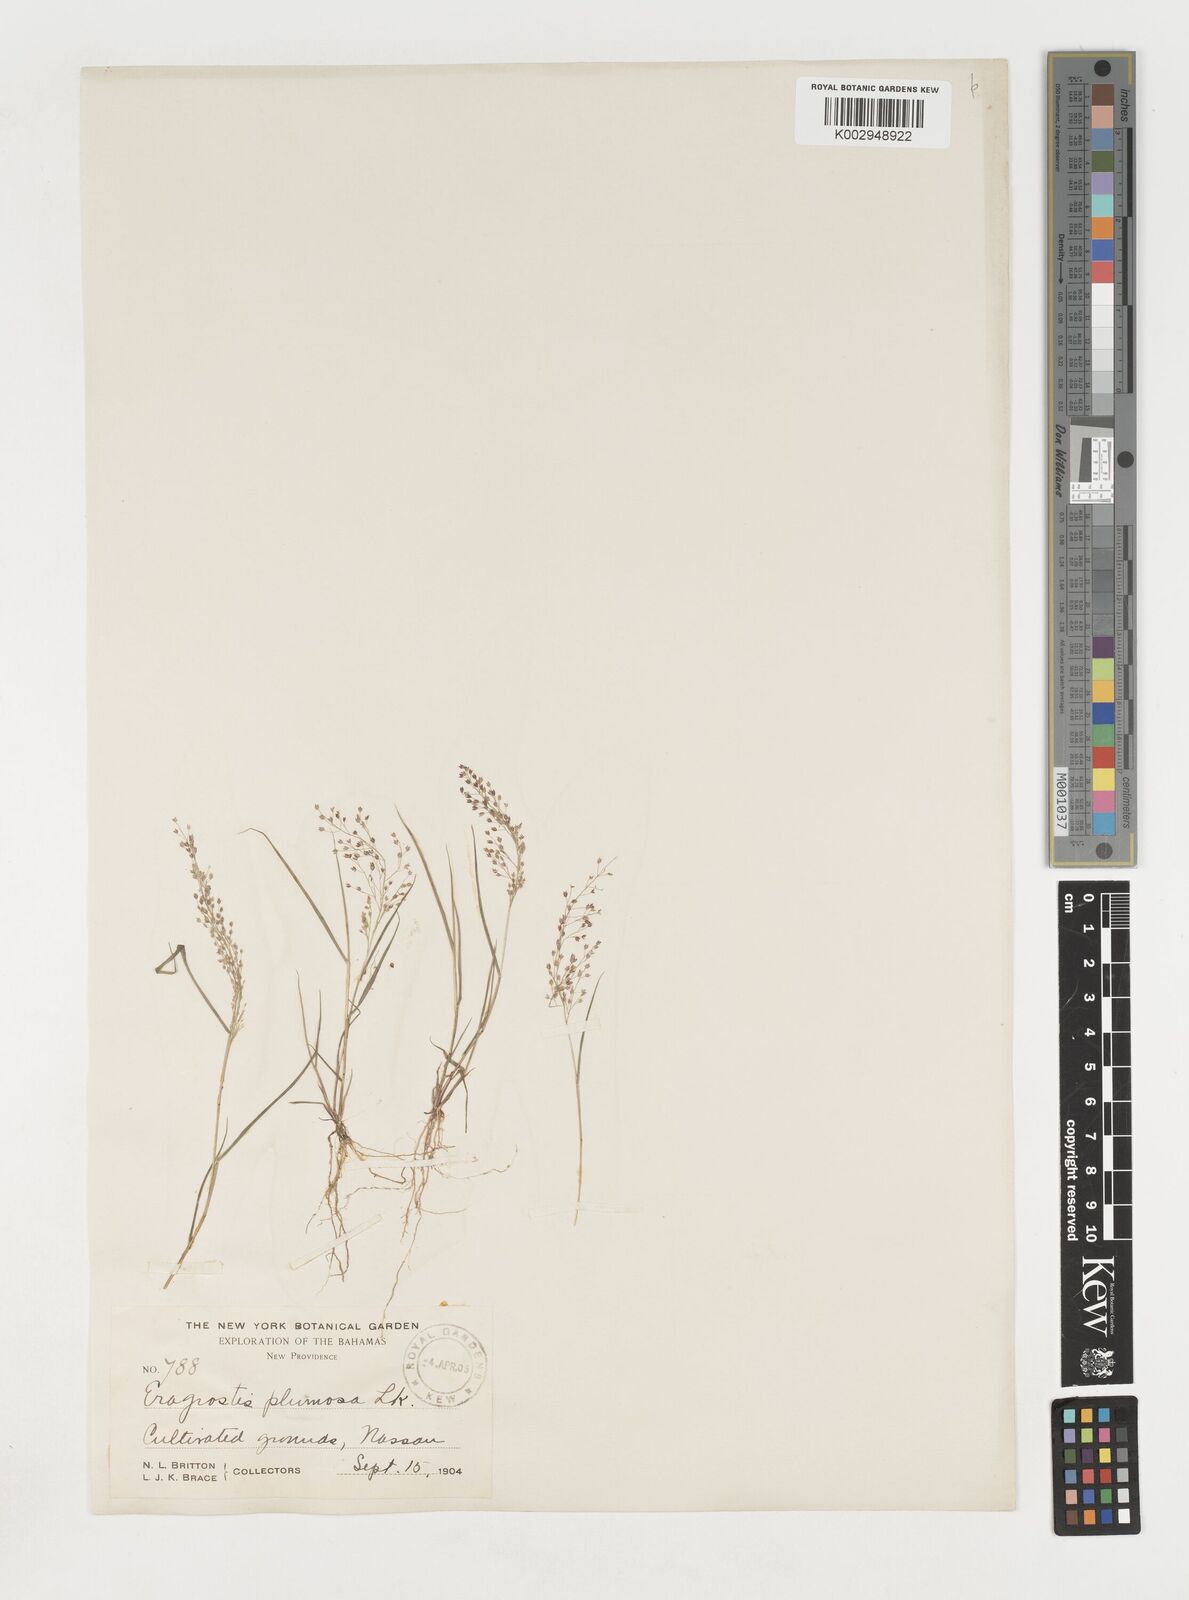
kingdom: Plantae
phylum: Tracheophyta
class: Liliopsida
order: Poales
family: Poaceae
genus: Eragrostis
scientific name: Eragrostis tenella
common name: Japanese lovegrass
